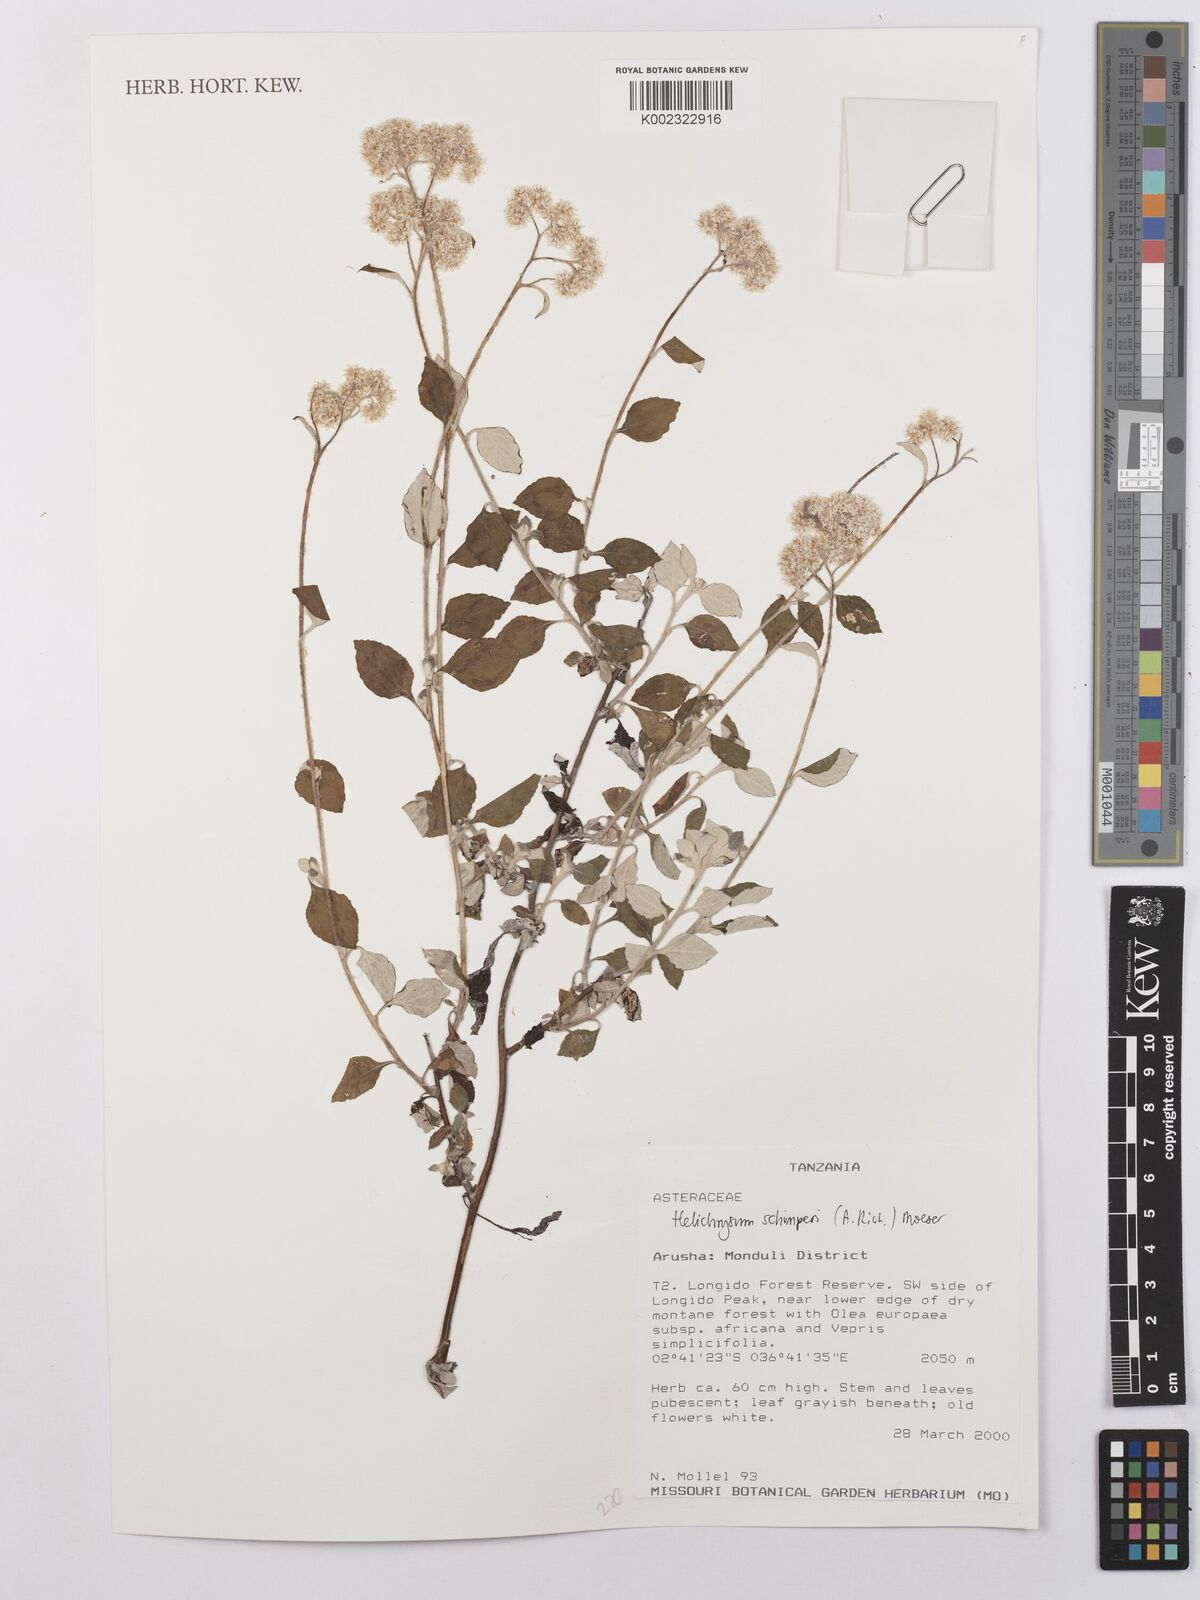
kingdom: Plantae
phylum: Tracheophyta
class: Magnoliopsida
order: Asterales
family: Asteraceae
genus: Helichrysum
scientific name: Helichrysum schimperi
